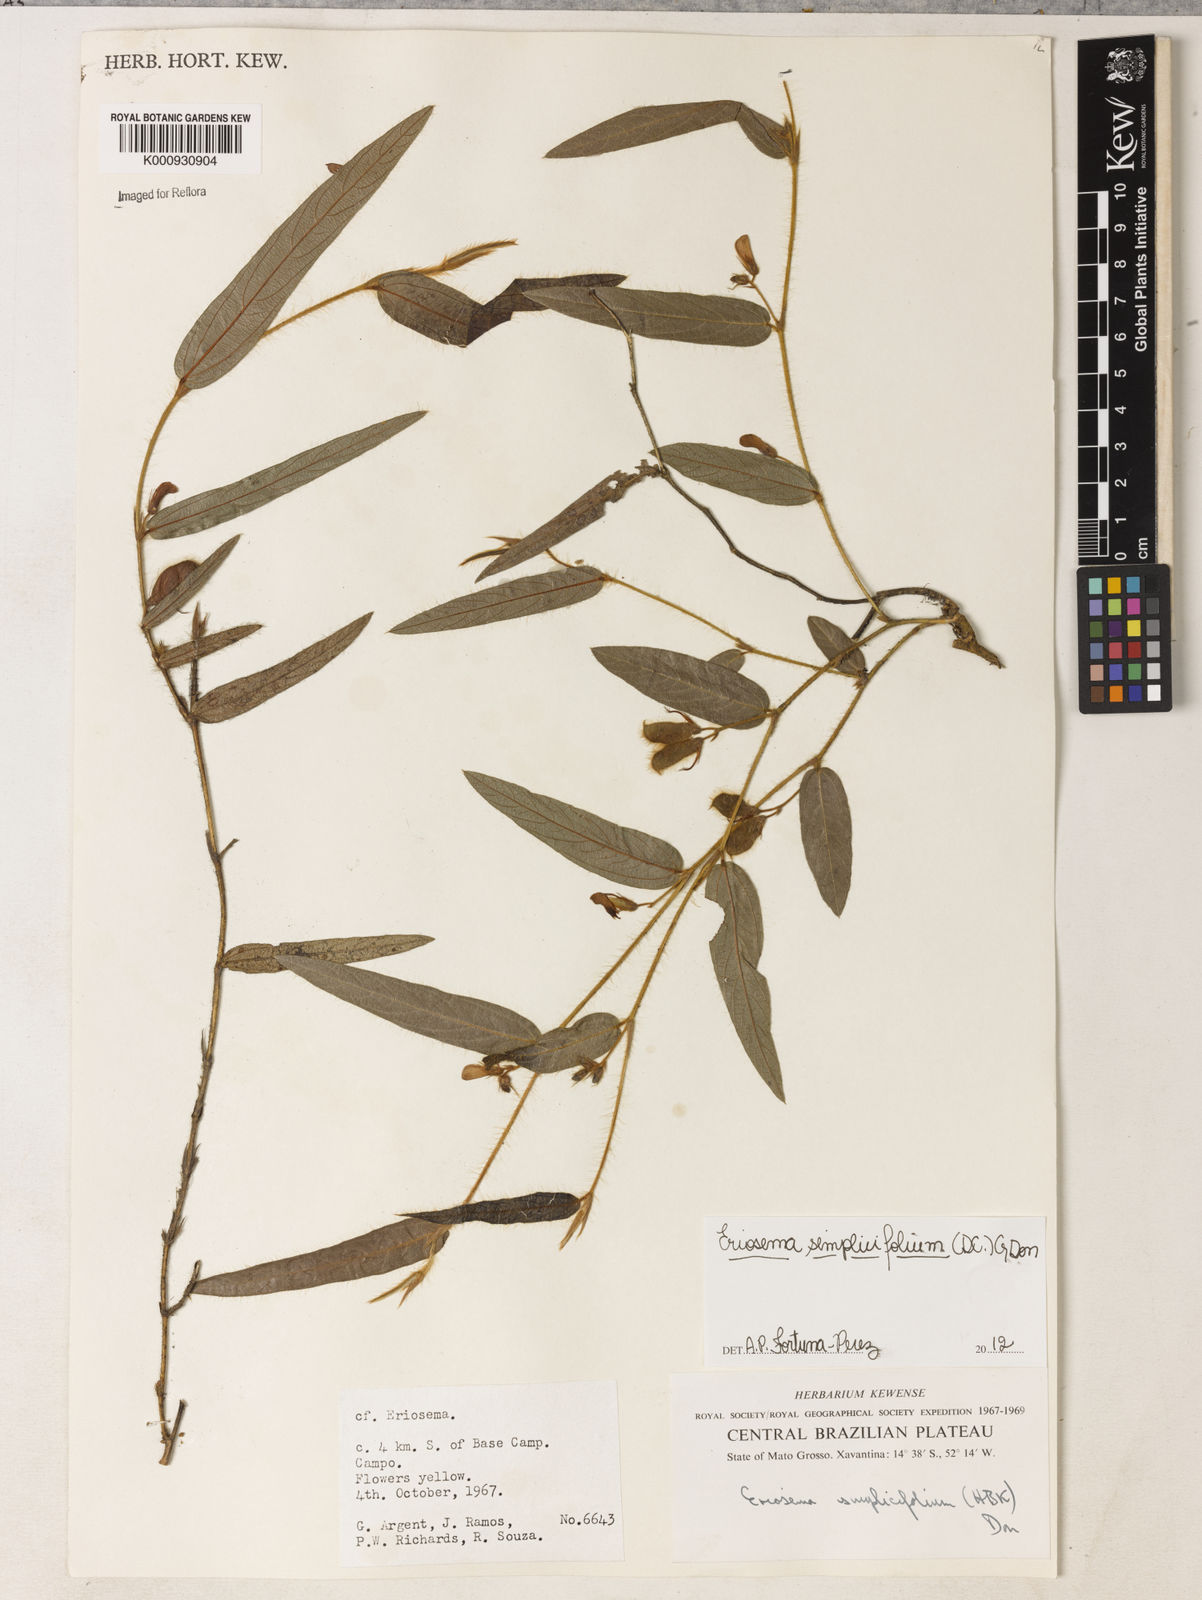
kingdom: Plantae
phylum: Tracheophyta
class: Magnoliopsida
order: Fabales
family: Fabaceae
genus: Eriosema
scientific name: Eriosema simplicifolium
